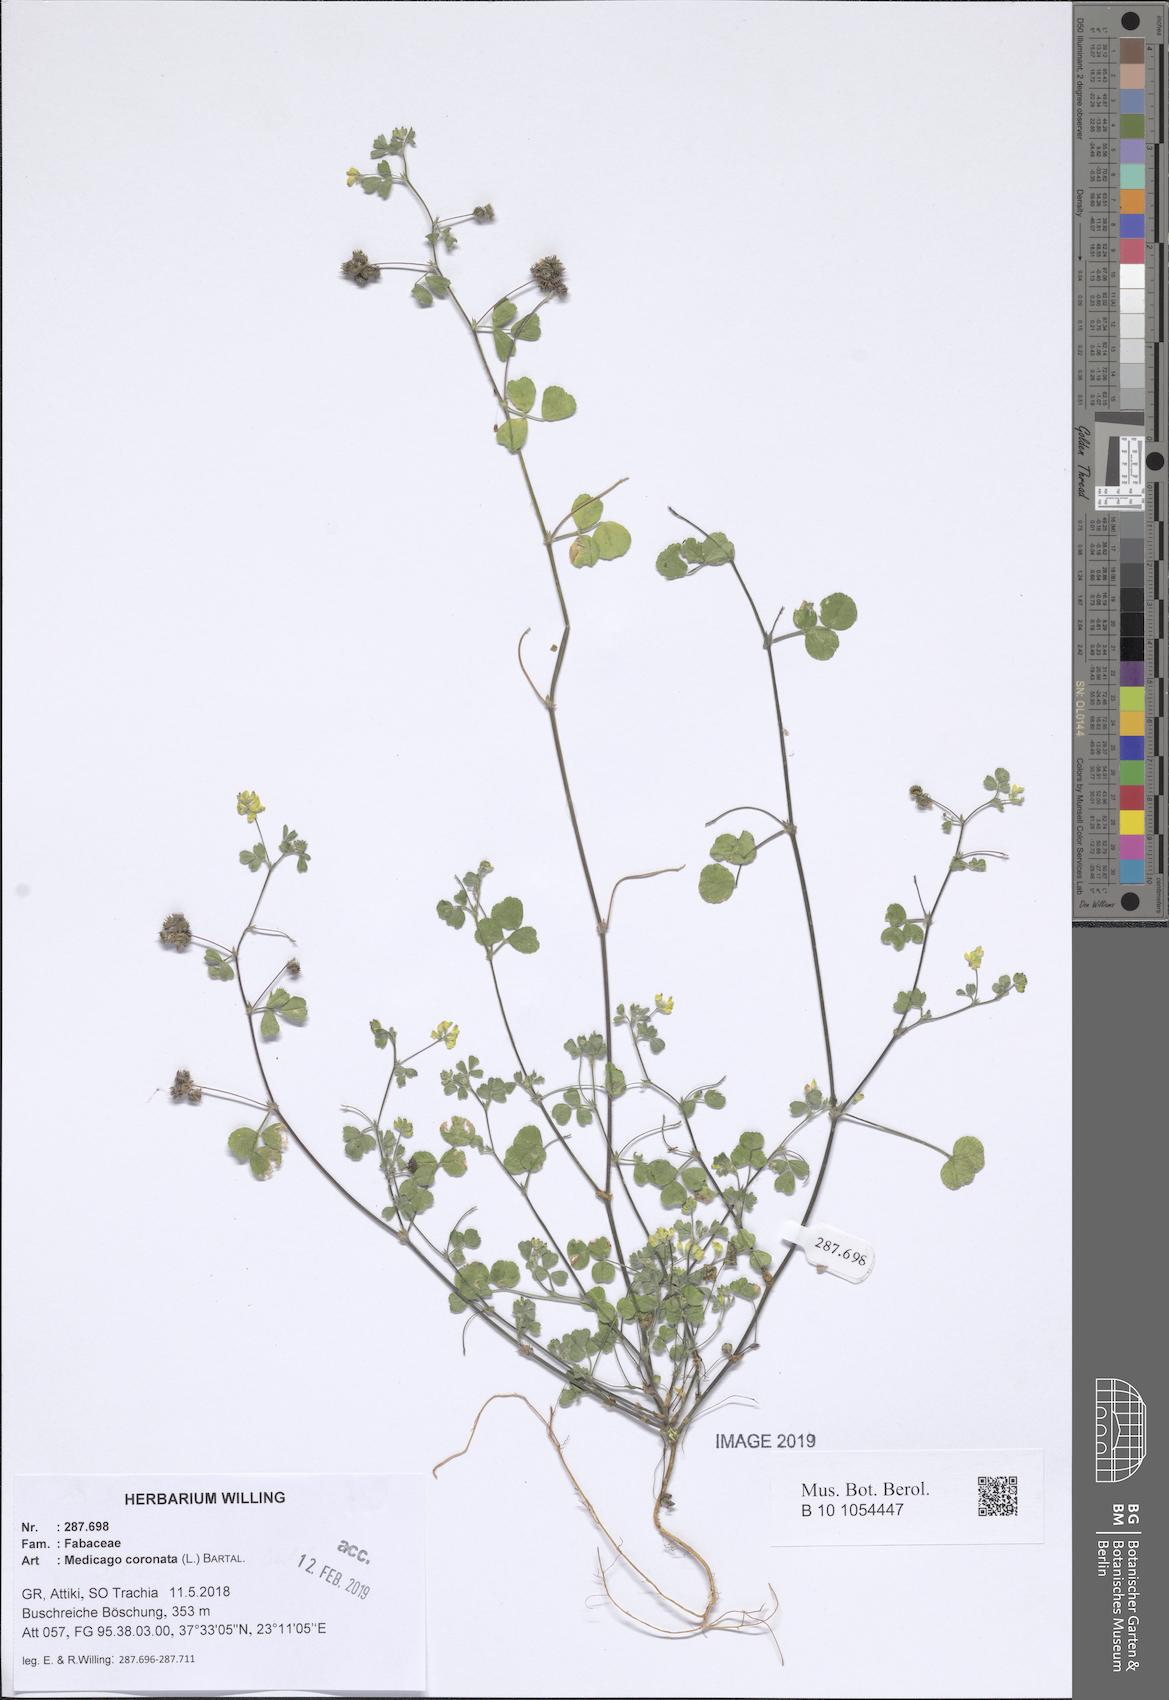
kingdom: Plantae
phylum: Tracheophyta
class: Magnoliopsida
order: Fabales
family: Fabaceae
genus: Medicago
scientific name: Medicago coronata
